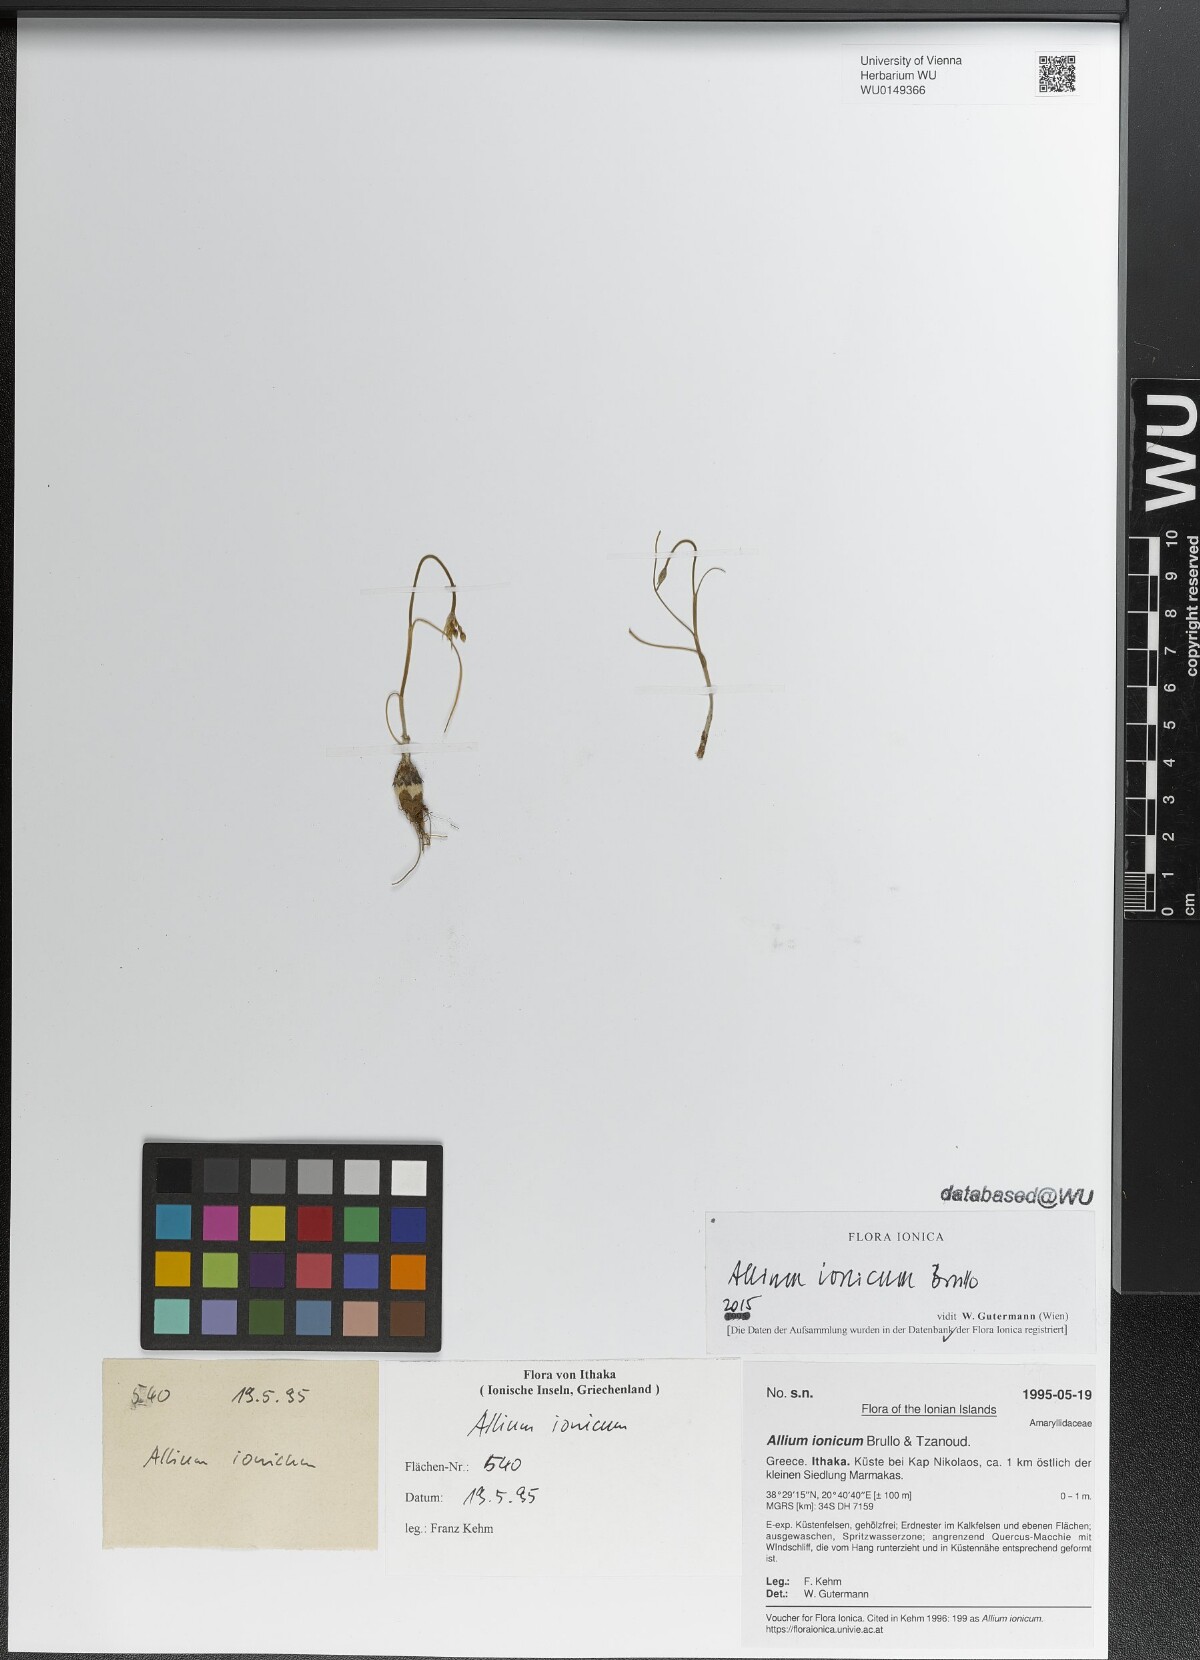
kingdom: Plantae
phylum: Tracheophyta
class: Liliopsida
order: Asparagales
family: Amaryllidaceae
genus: Allium
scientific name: Allium ionicum
